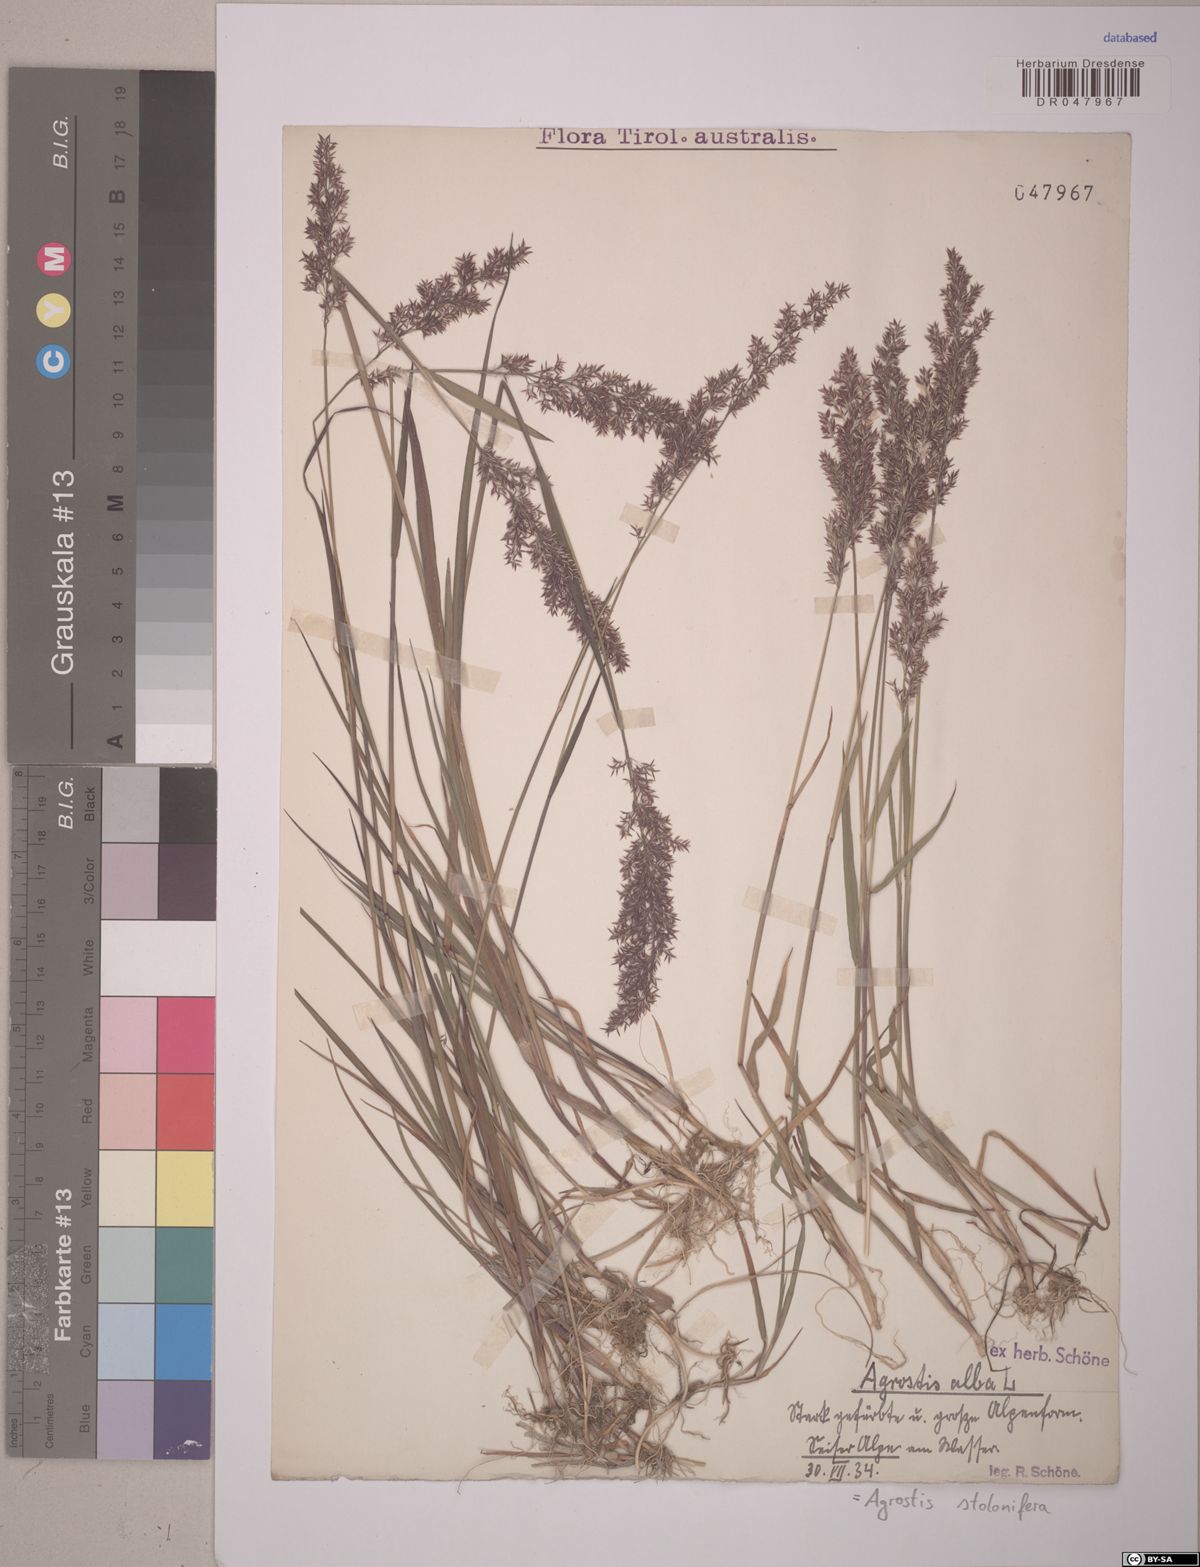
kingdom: Plantae
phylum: Tracheophyta
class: Liliopsida
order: Poales
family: Poaceae
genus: Agrostis
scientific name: Agrostis stolonifera
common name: Creeping bentgrass
